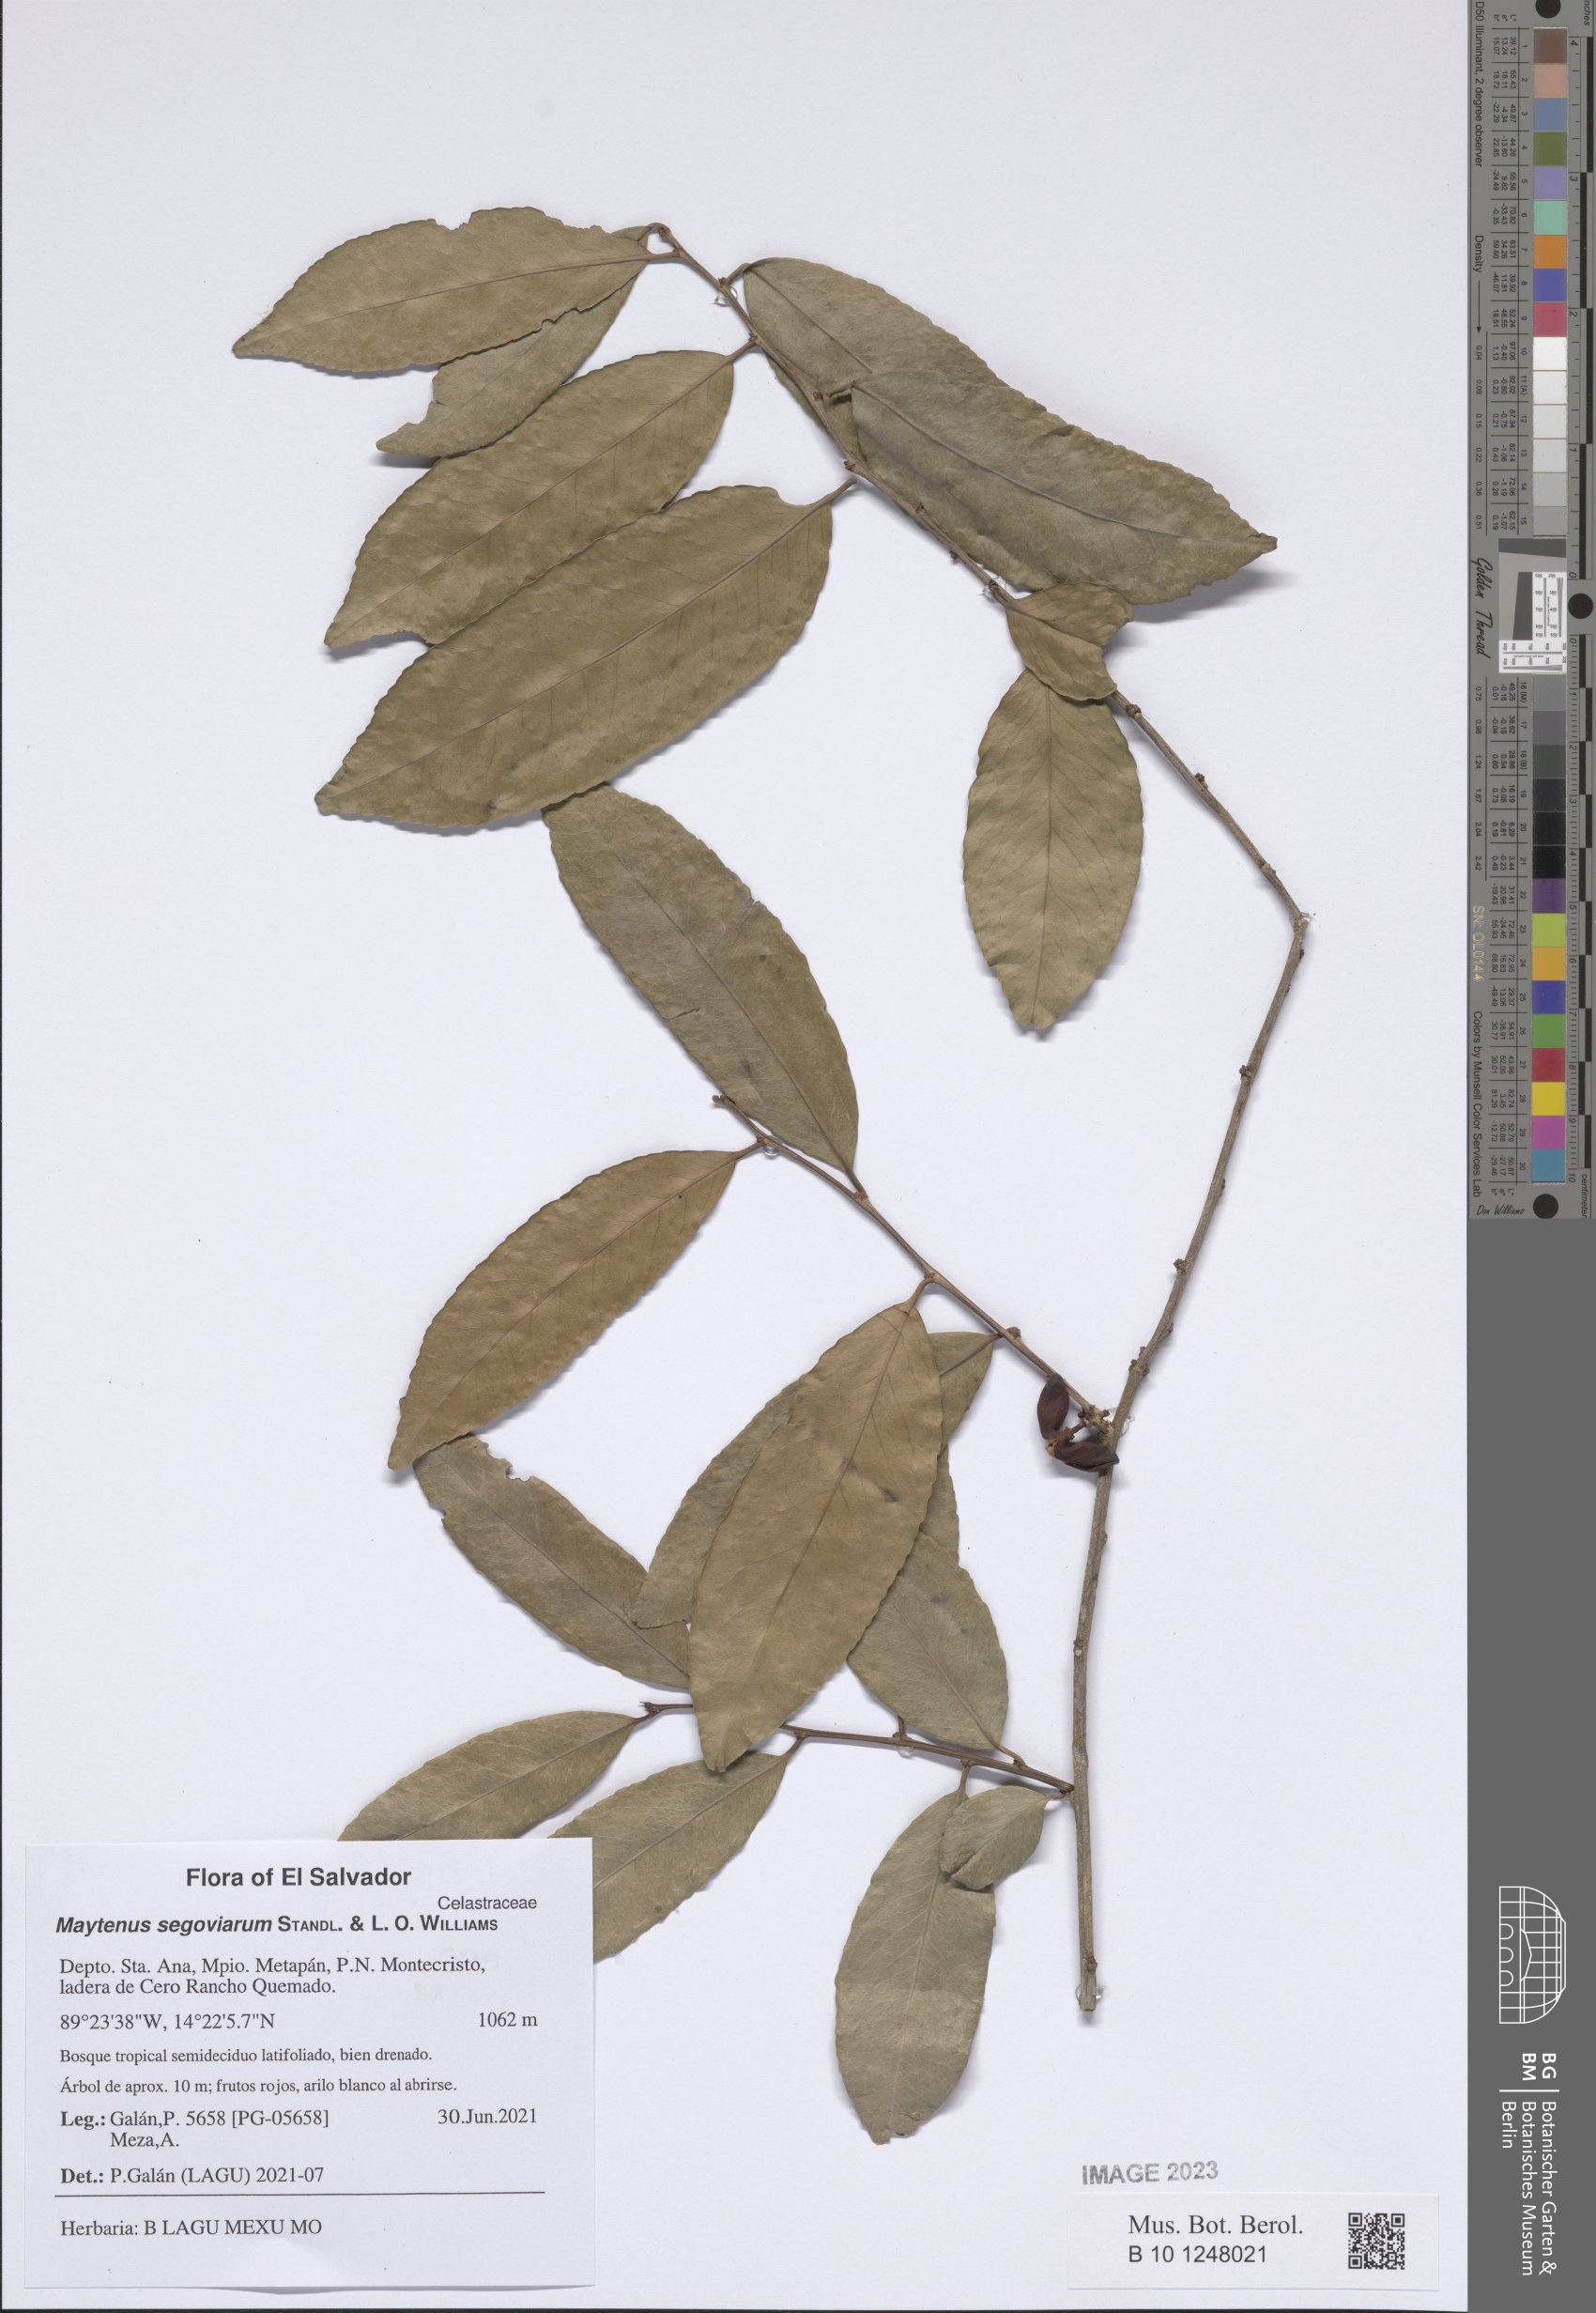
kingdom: Plantae
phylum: Tracheophyta
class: Magnoliopsida
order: Celastrales
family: Celastraceae
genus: Monteverdia
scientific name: Monteverdia segoviarum
